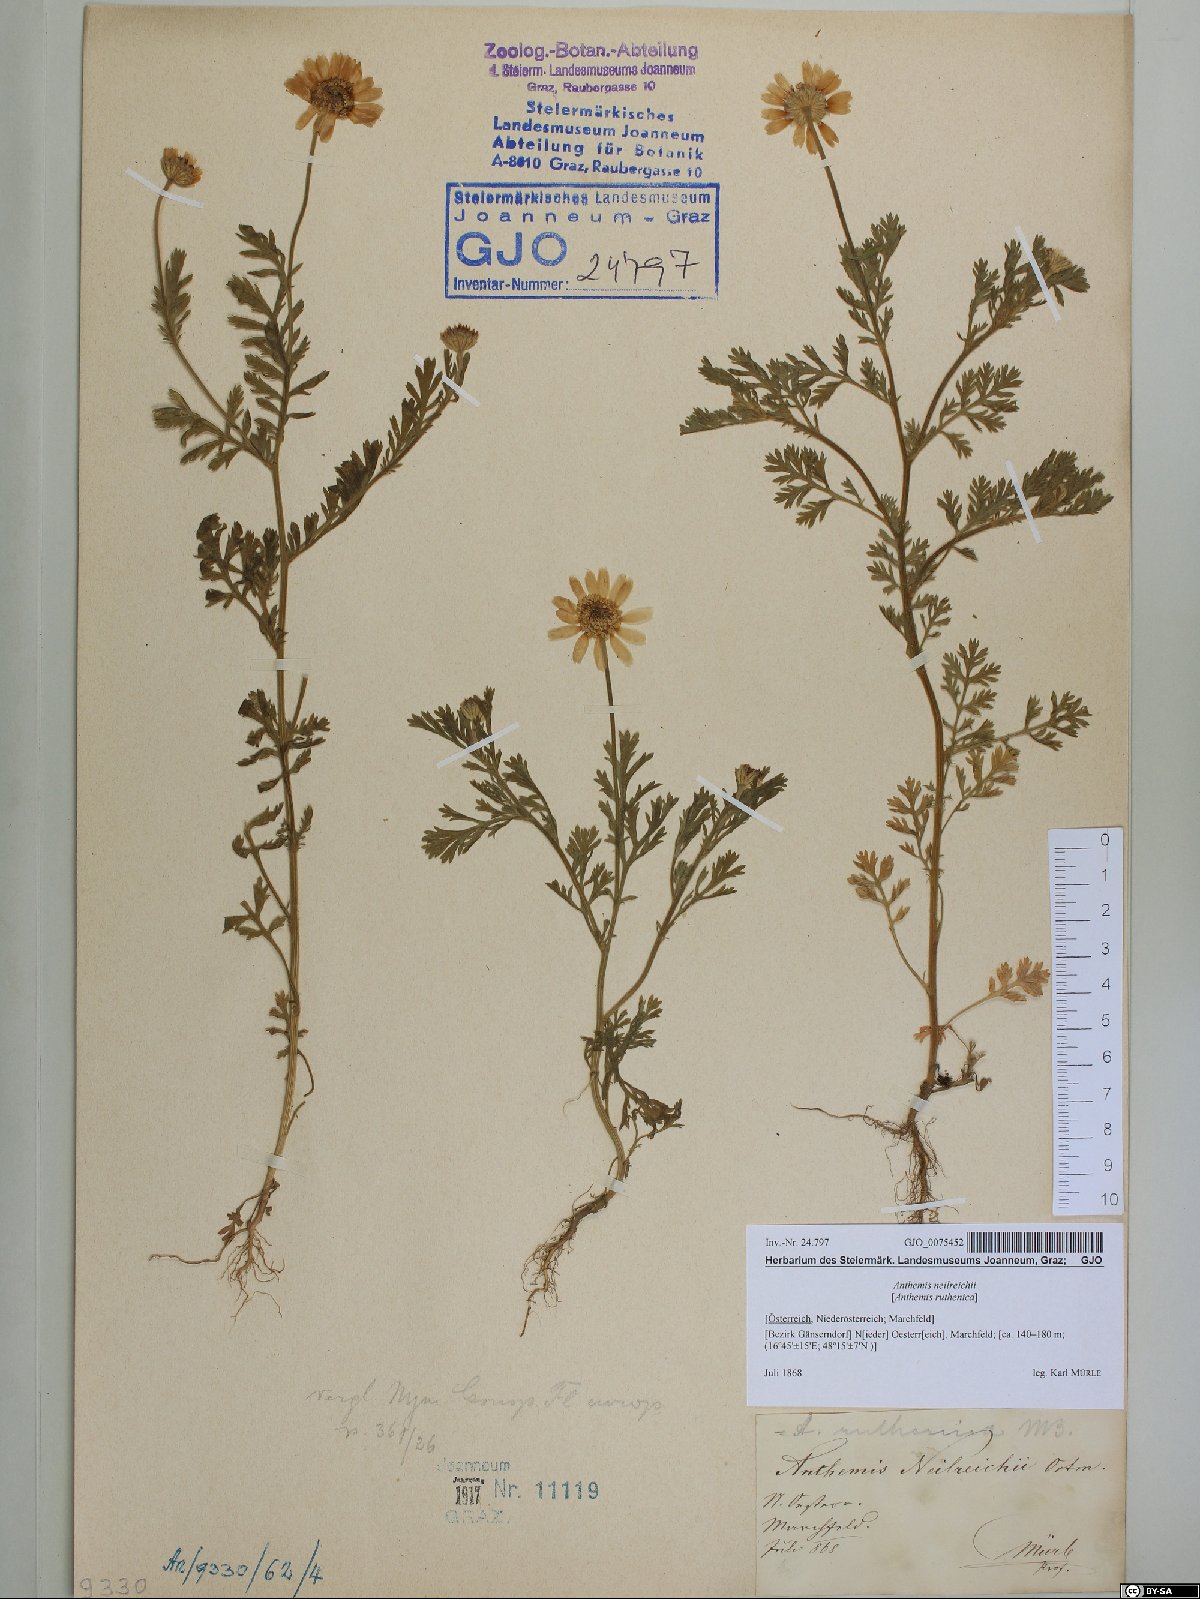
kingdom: Plantae
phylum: Tracheophyta
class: Magnoliopsida
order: Asterales
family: Asteraceae
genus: Anthemis
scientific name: Anthemis ruthenica
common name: Eastern chamomile
